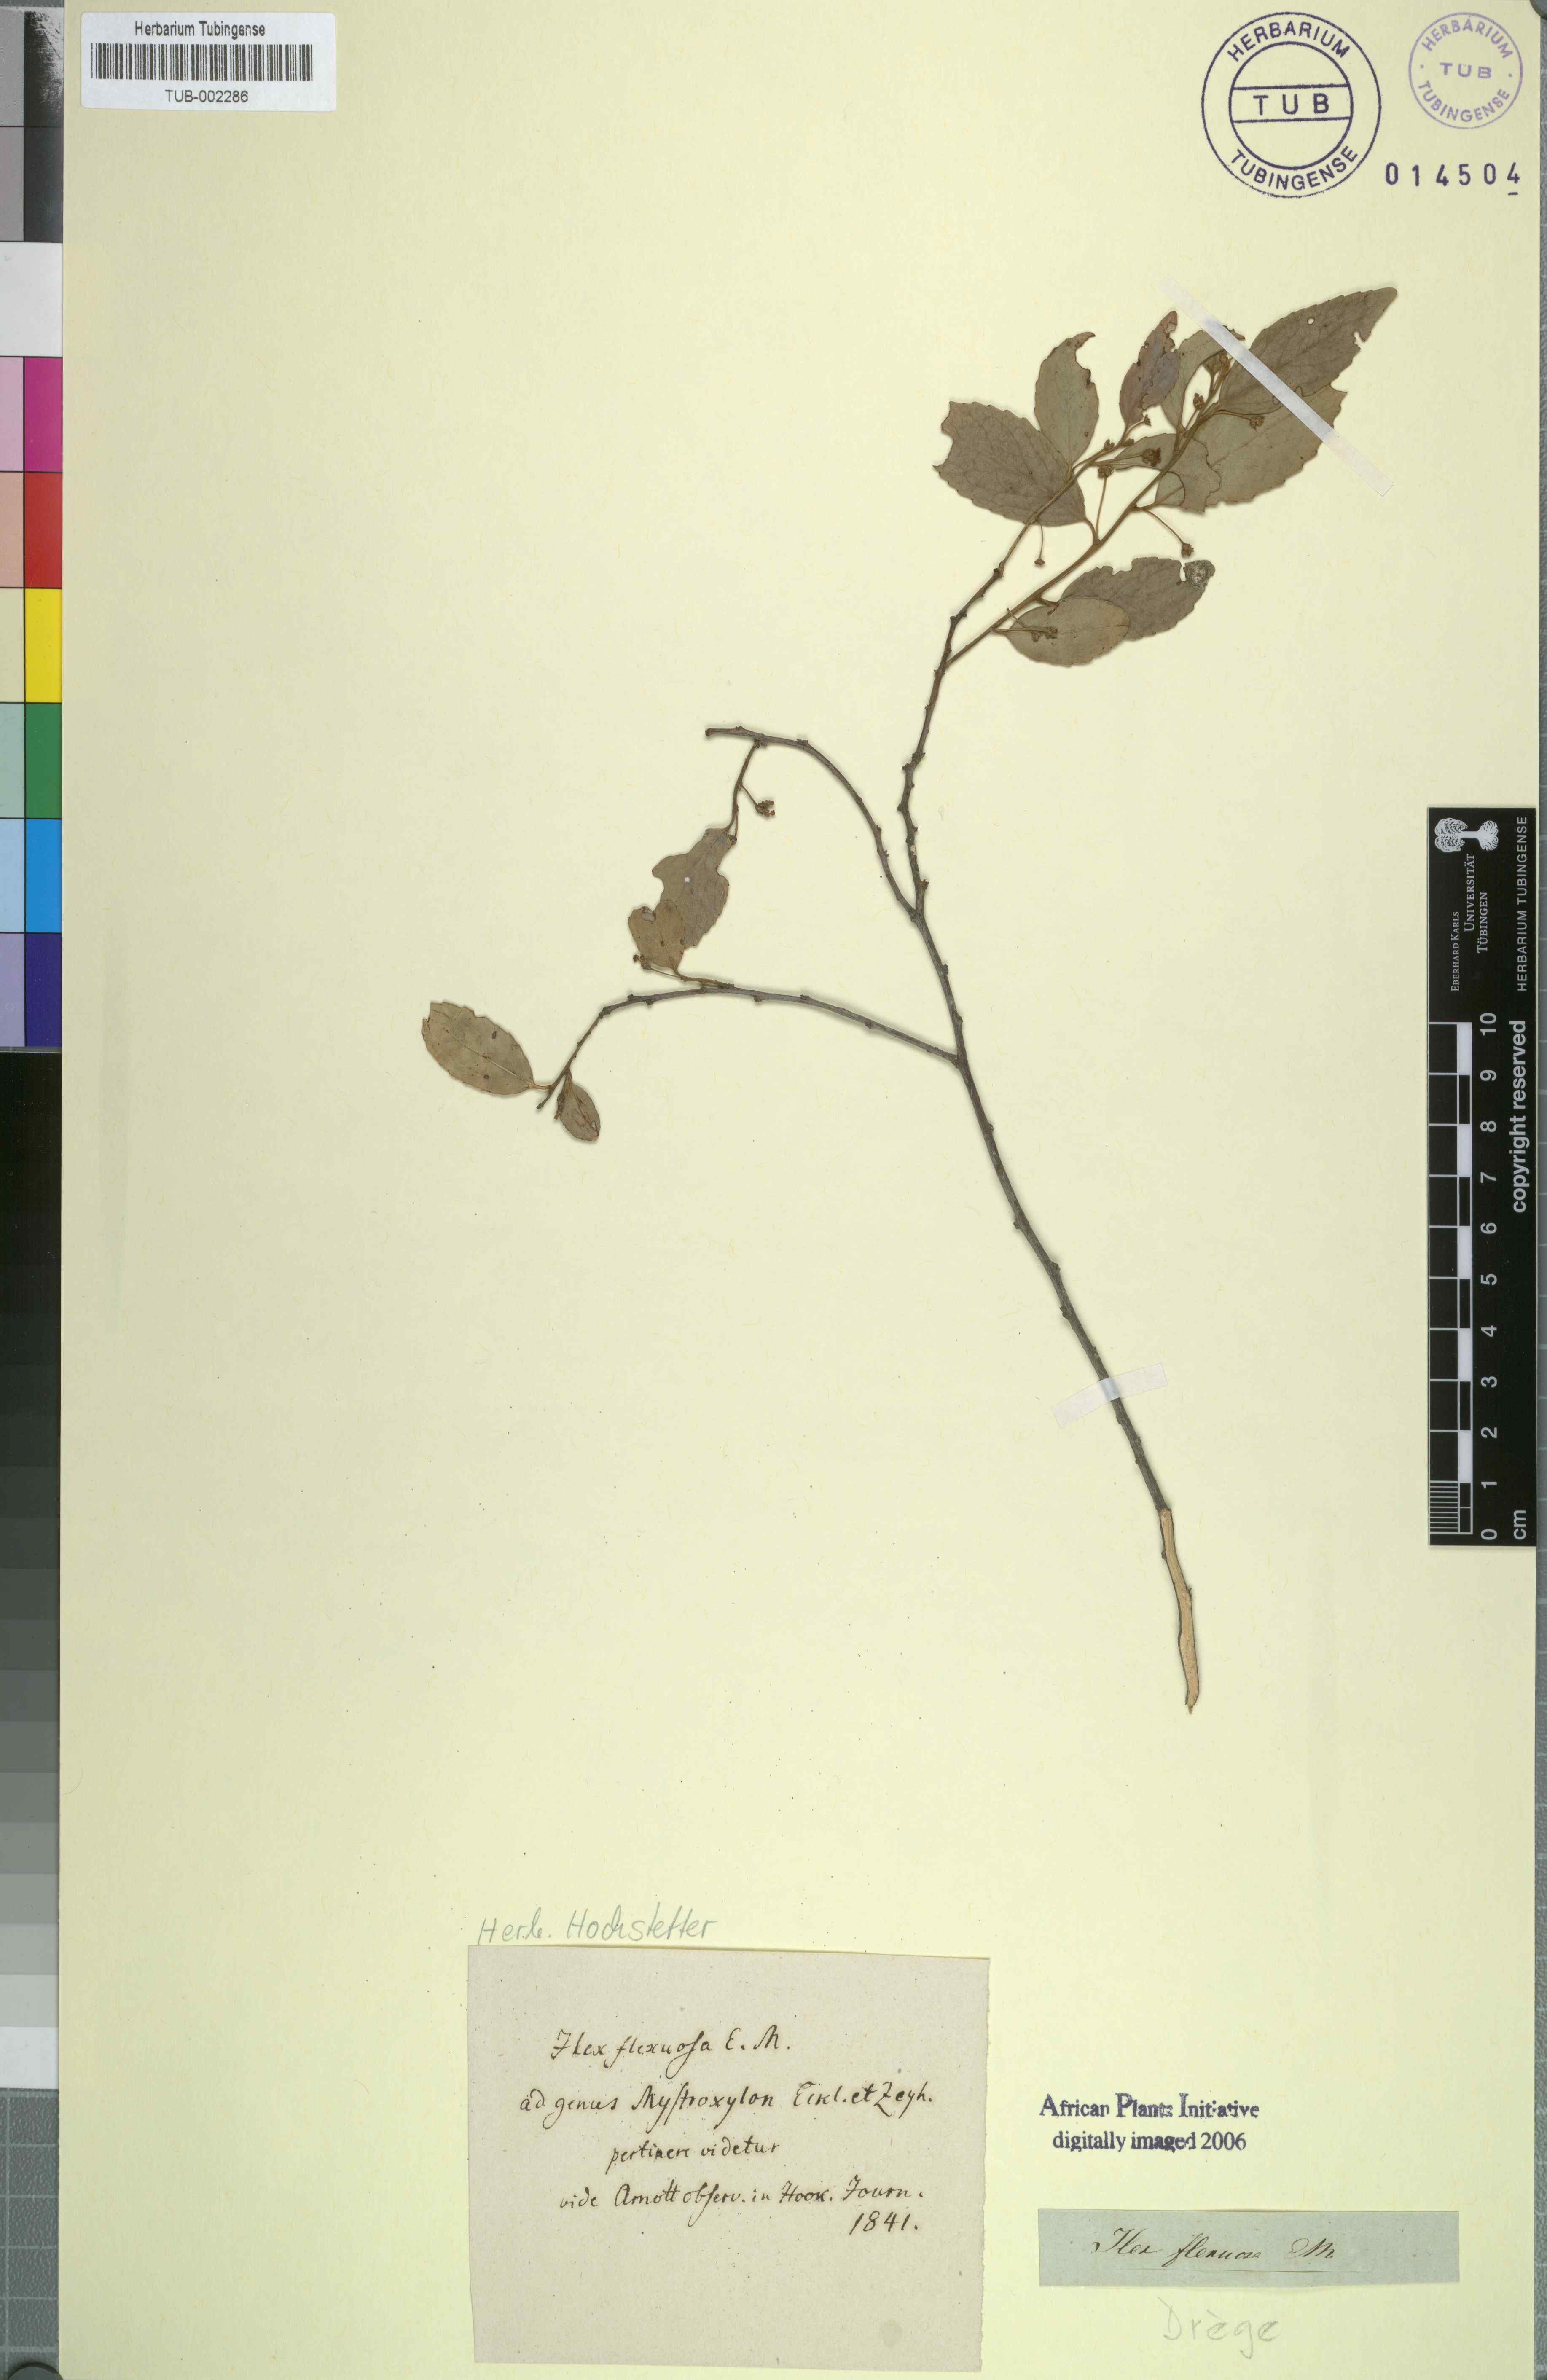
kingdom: Plantae
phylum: Tracheophyta
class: Magnoliopsida
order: Celastrales
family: Celastraceae
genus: Gymnosporia
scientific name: Gymnosporia peduncularis
